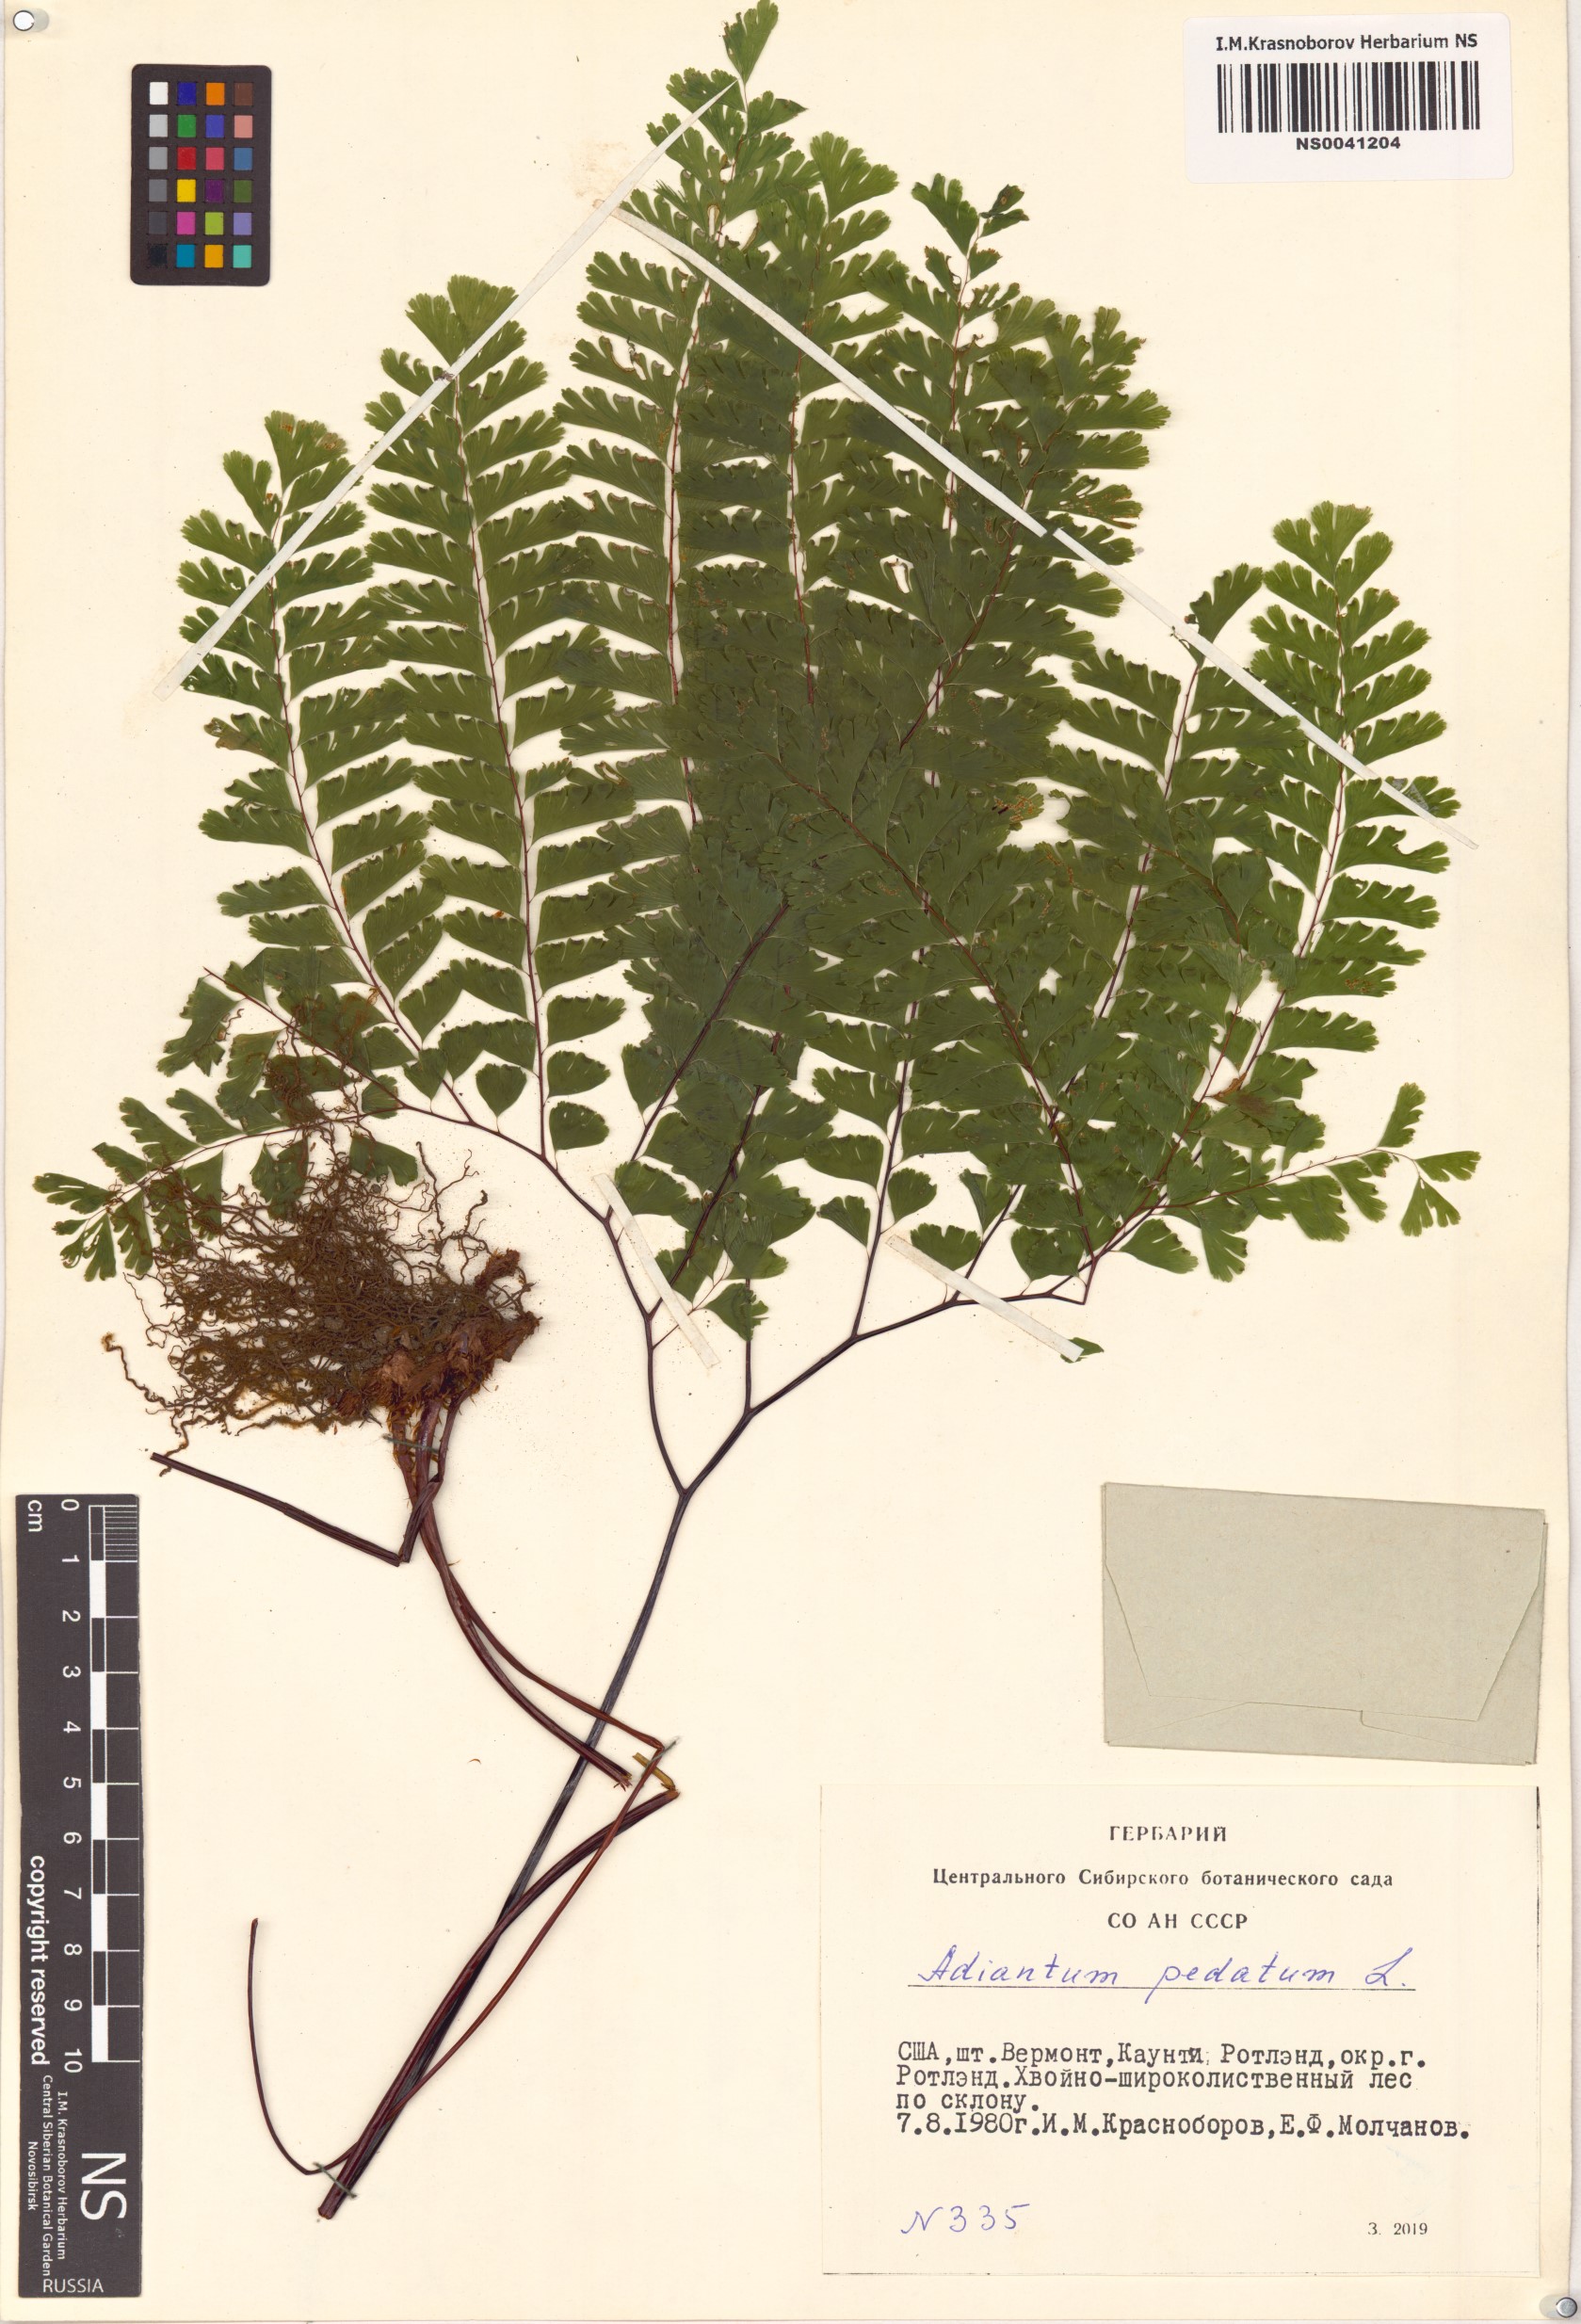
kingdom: Plantae
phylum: Tracheophyta
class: Polypodiopsida
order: Polypodiales
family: Pteridaceae
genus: Adiantum
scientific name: Adiantum pedatum
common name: Five-finger fern
